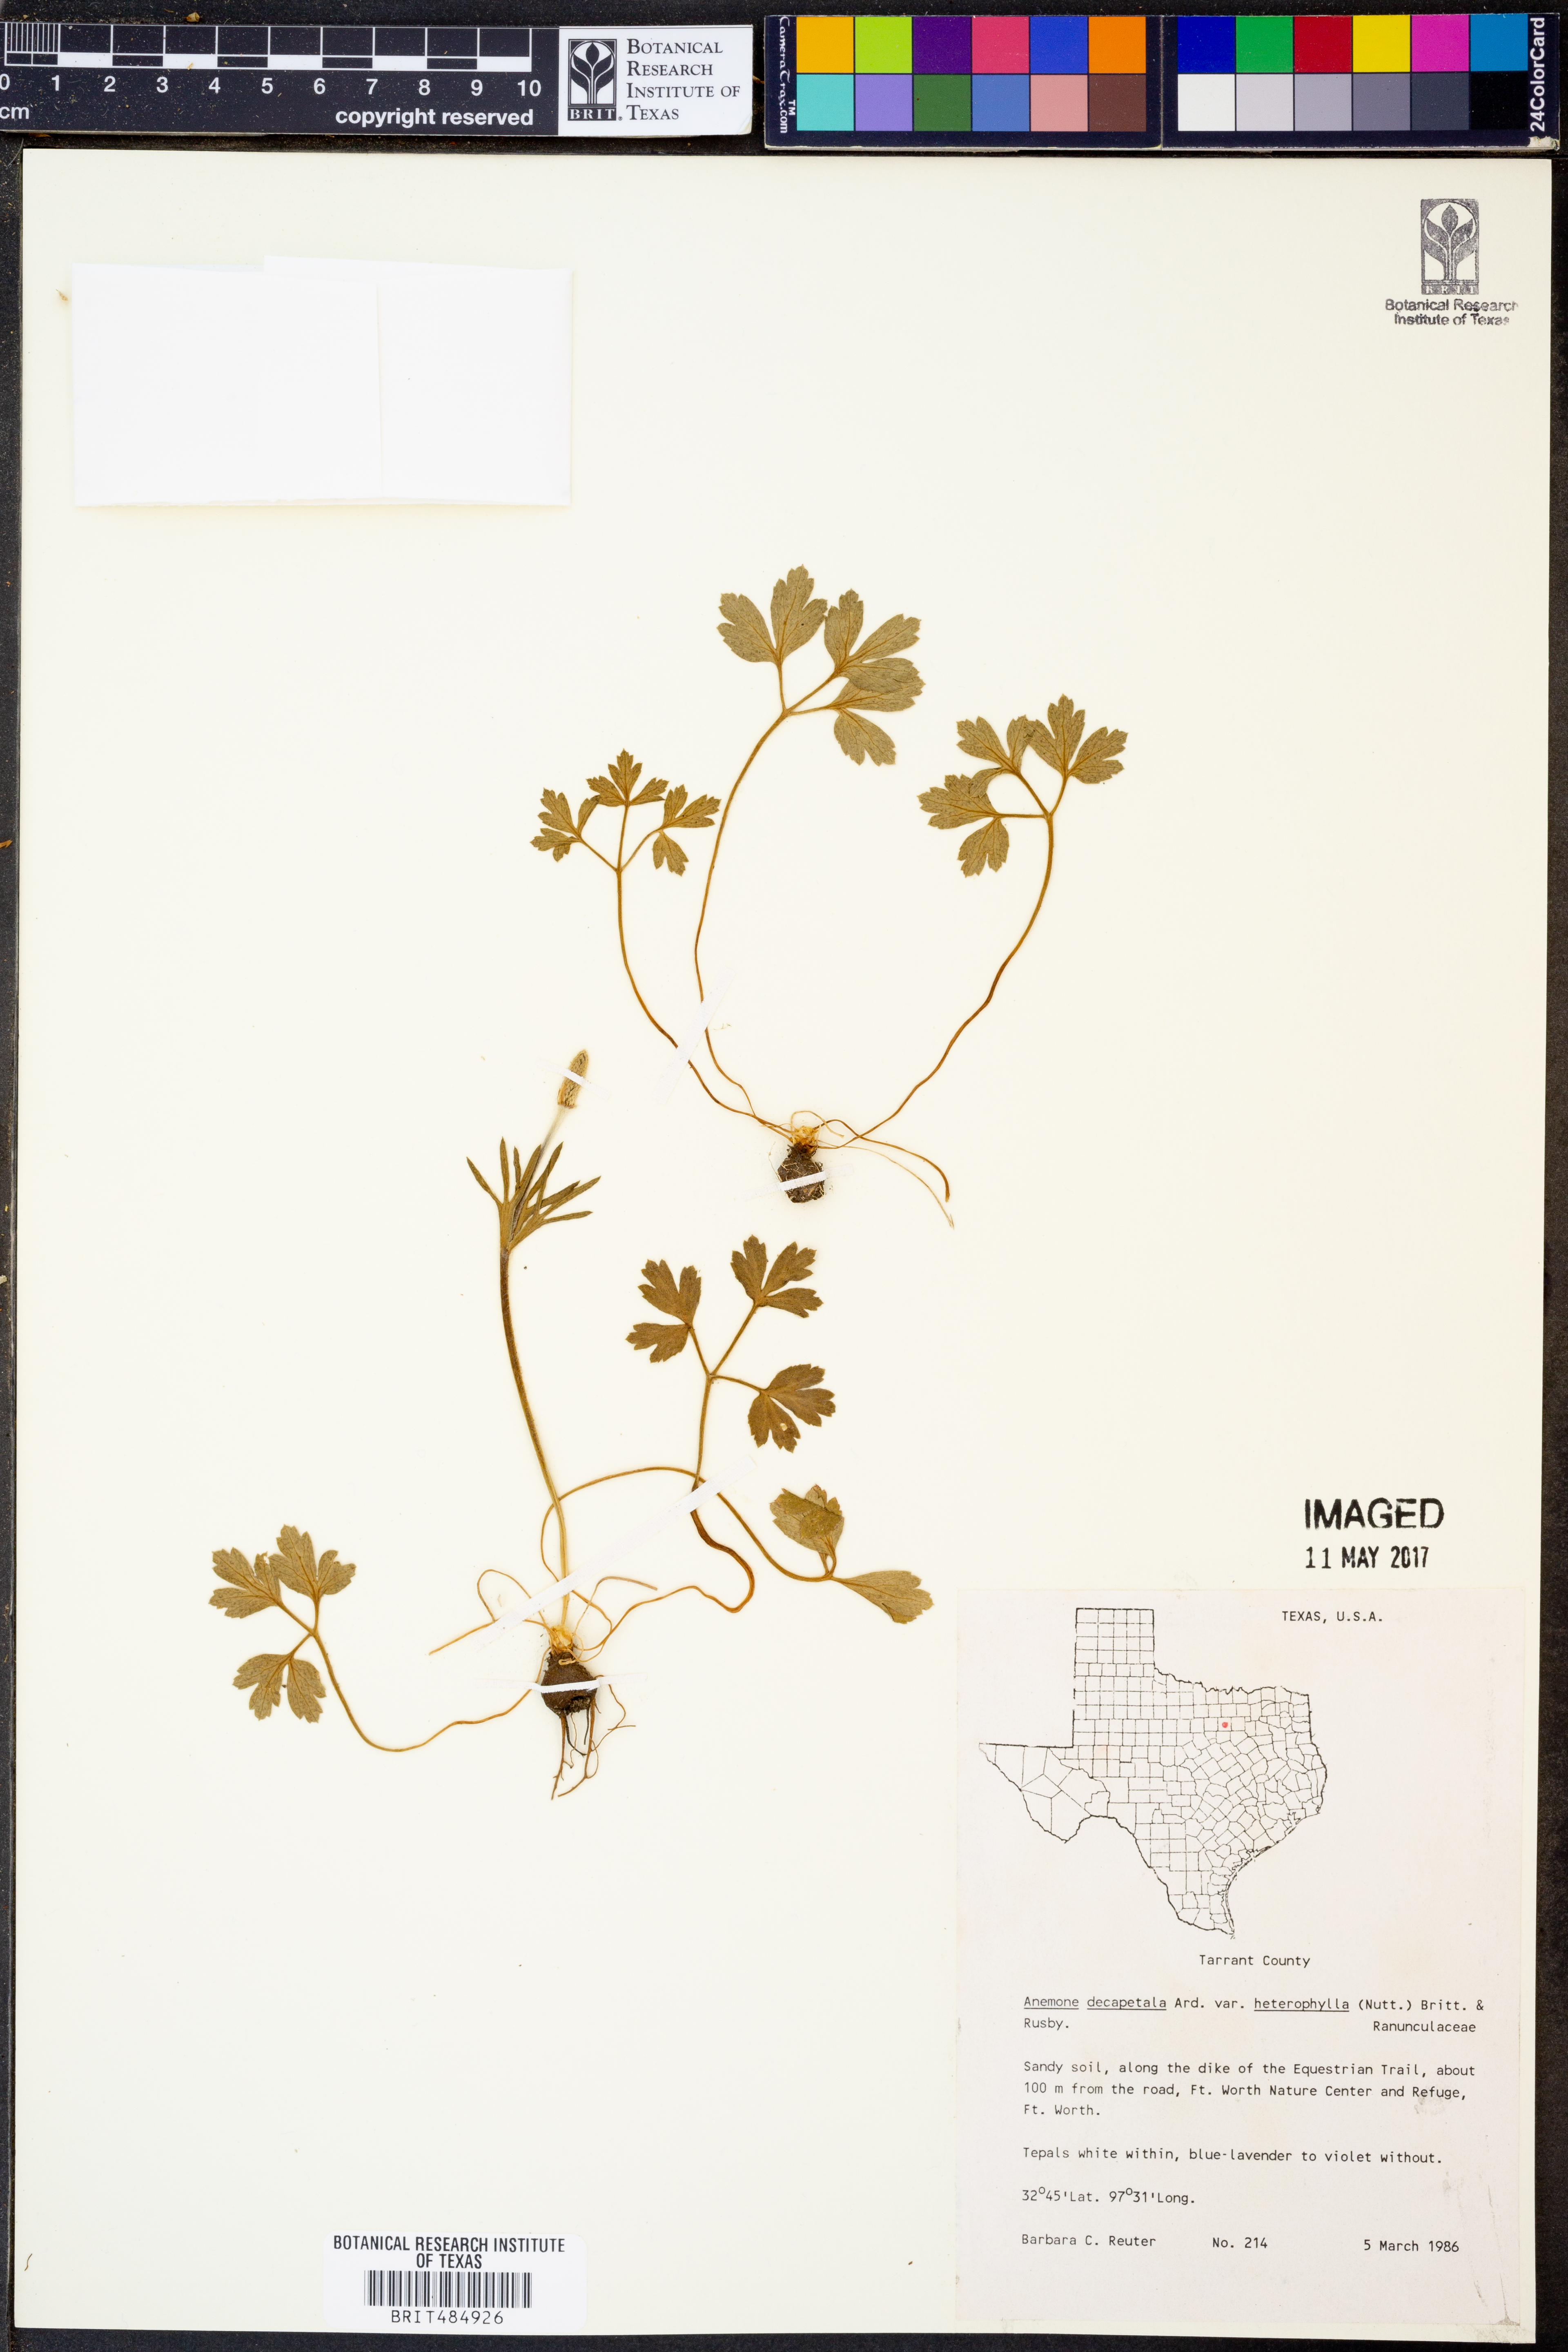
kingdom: Plantae
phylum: Tracheophyta
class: Magnoliopsida
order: Ranunculales
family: Ranunculaceae
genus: Anemone
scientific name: Anemone berlandieri
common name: Ten-petal anemone
